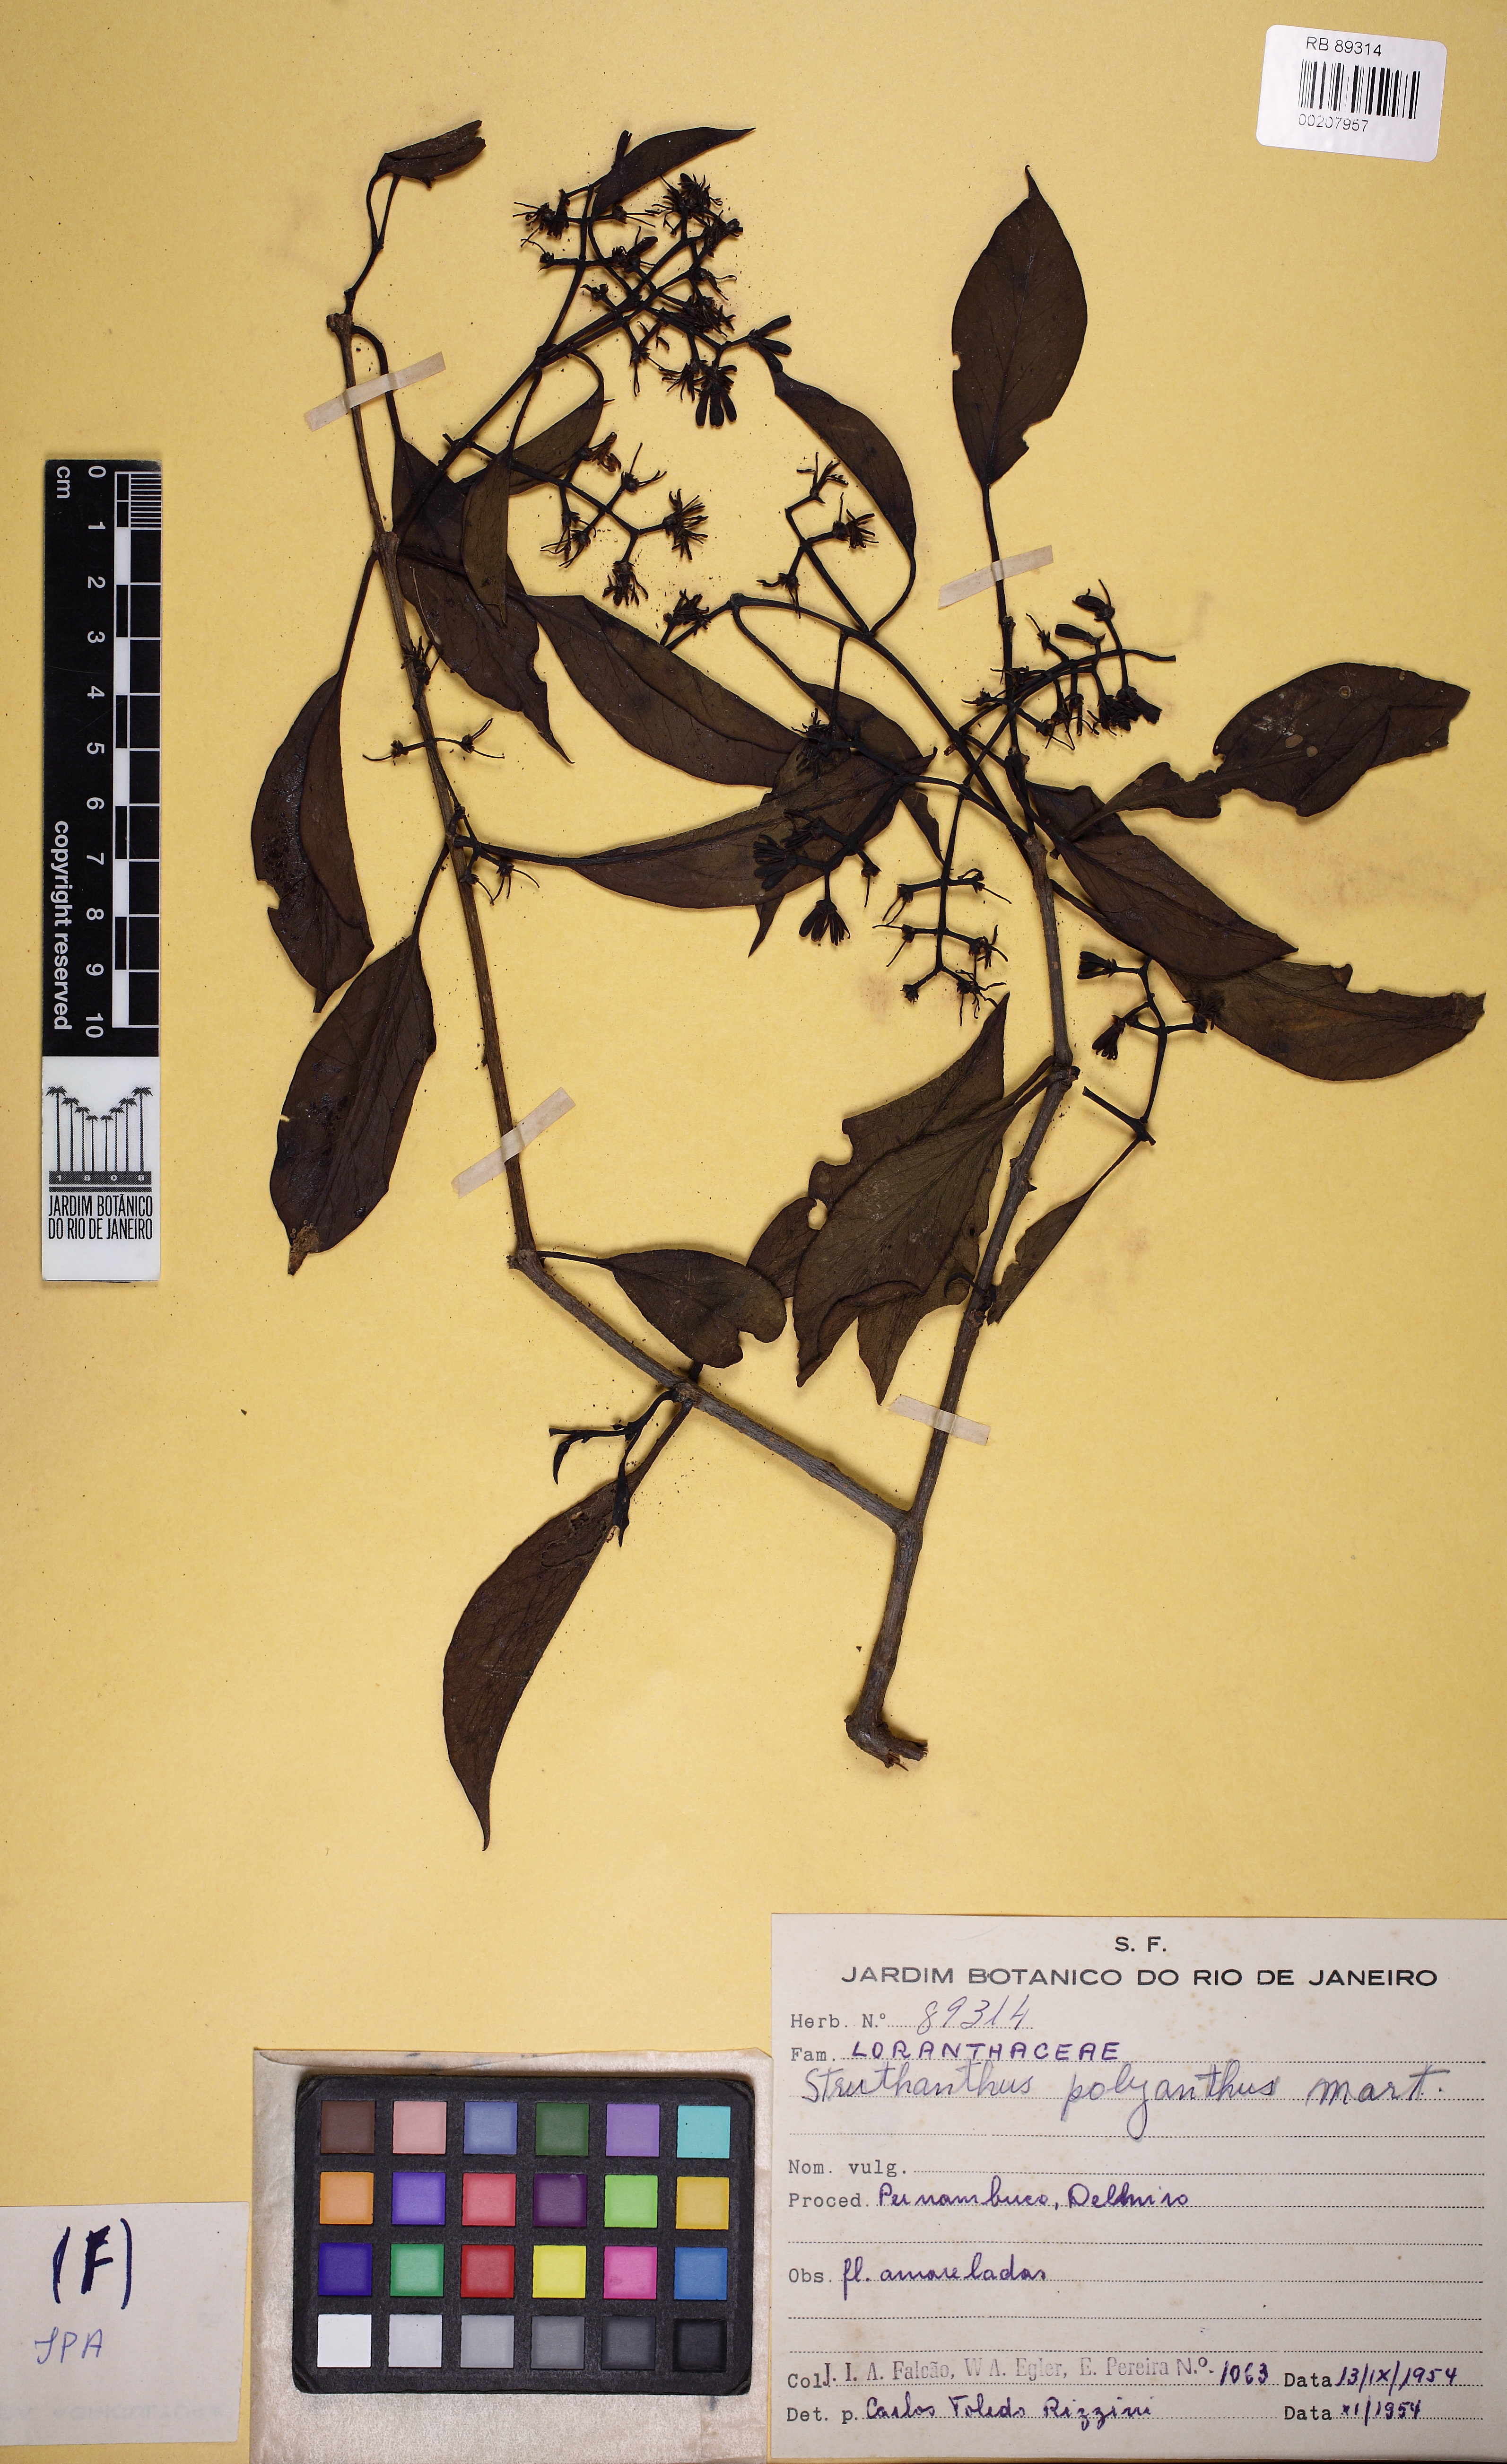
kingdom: Plantae
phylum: Tracheophyta
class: Magnoliopsida
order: Santalales
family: Loranthaceae
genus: Struthanthus
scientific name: Struthanthus polyanthus
